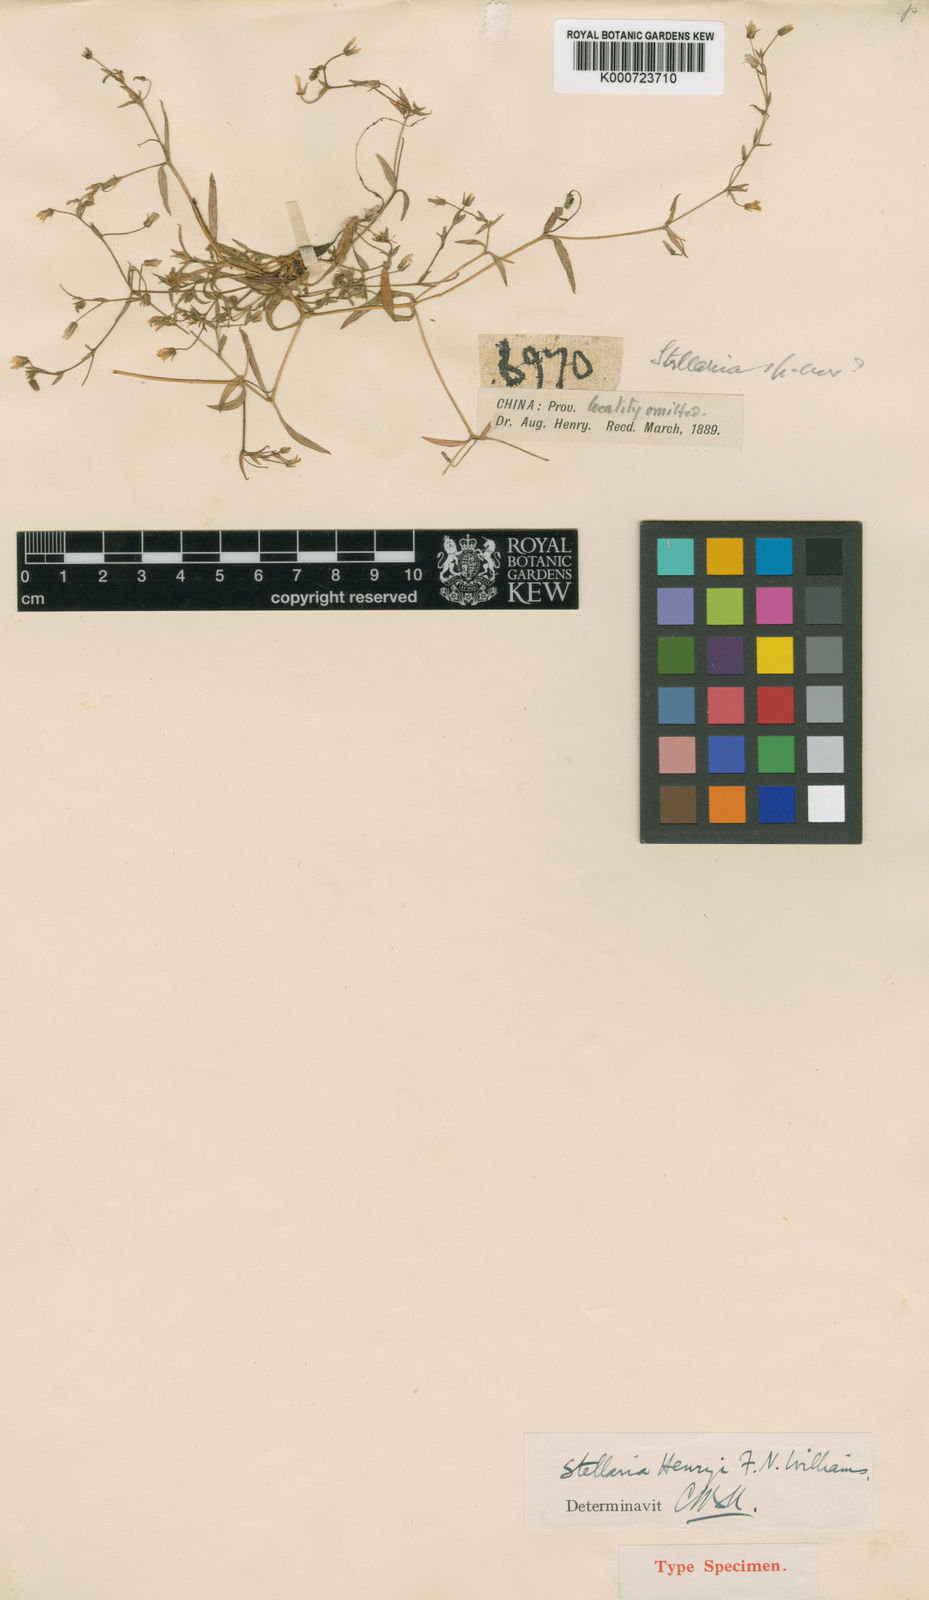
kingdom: Plantae
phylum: Tracheophyta
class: Magnoliopsida
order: Caryophyllales
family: Caryophyllaceae
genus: Stellaria
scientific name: Stellaria henryi
